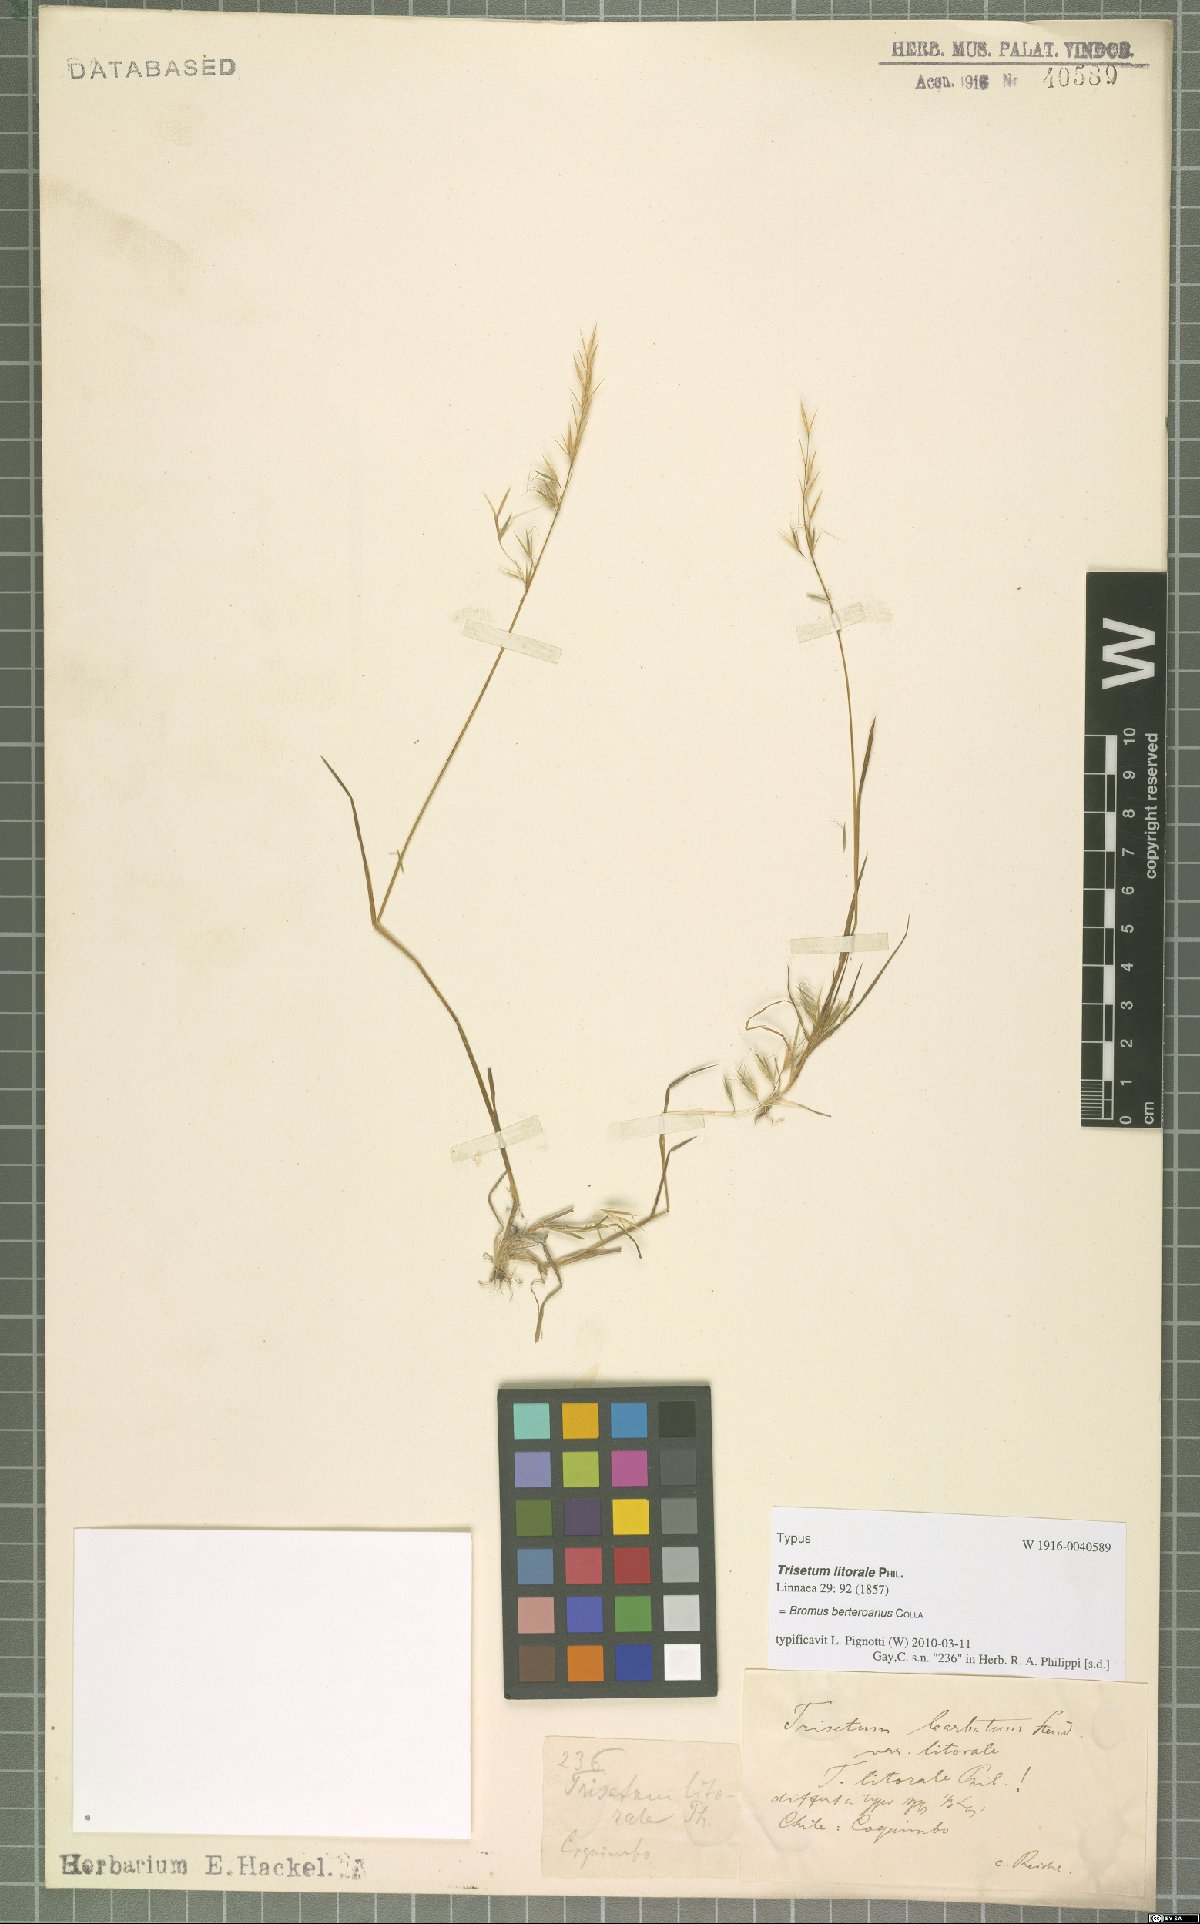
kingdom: Plantae
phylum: Tracheophyta
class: Liliopsida
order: Poales
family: Poaceae
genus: Bromus
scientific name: Bromus berteroanus
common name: Chilean chess
